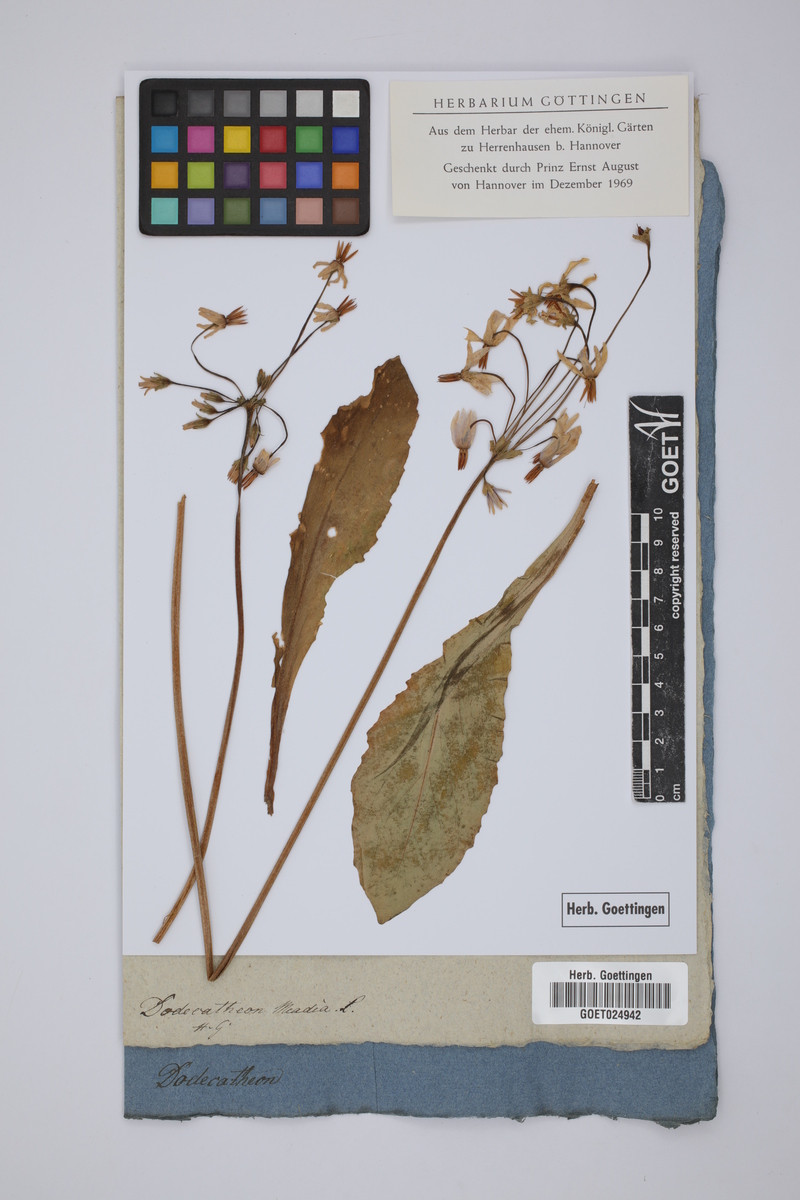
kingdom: Plantae
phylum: Tracheophyta
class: Magnoliopsida
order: Ericales
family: Primulaceae
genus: Dodecatheon
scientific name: Dodecatheon meadia
